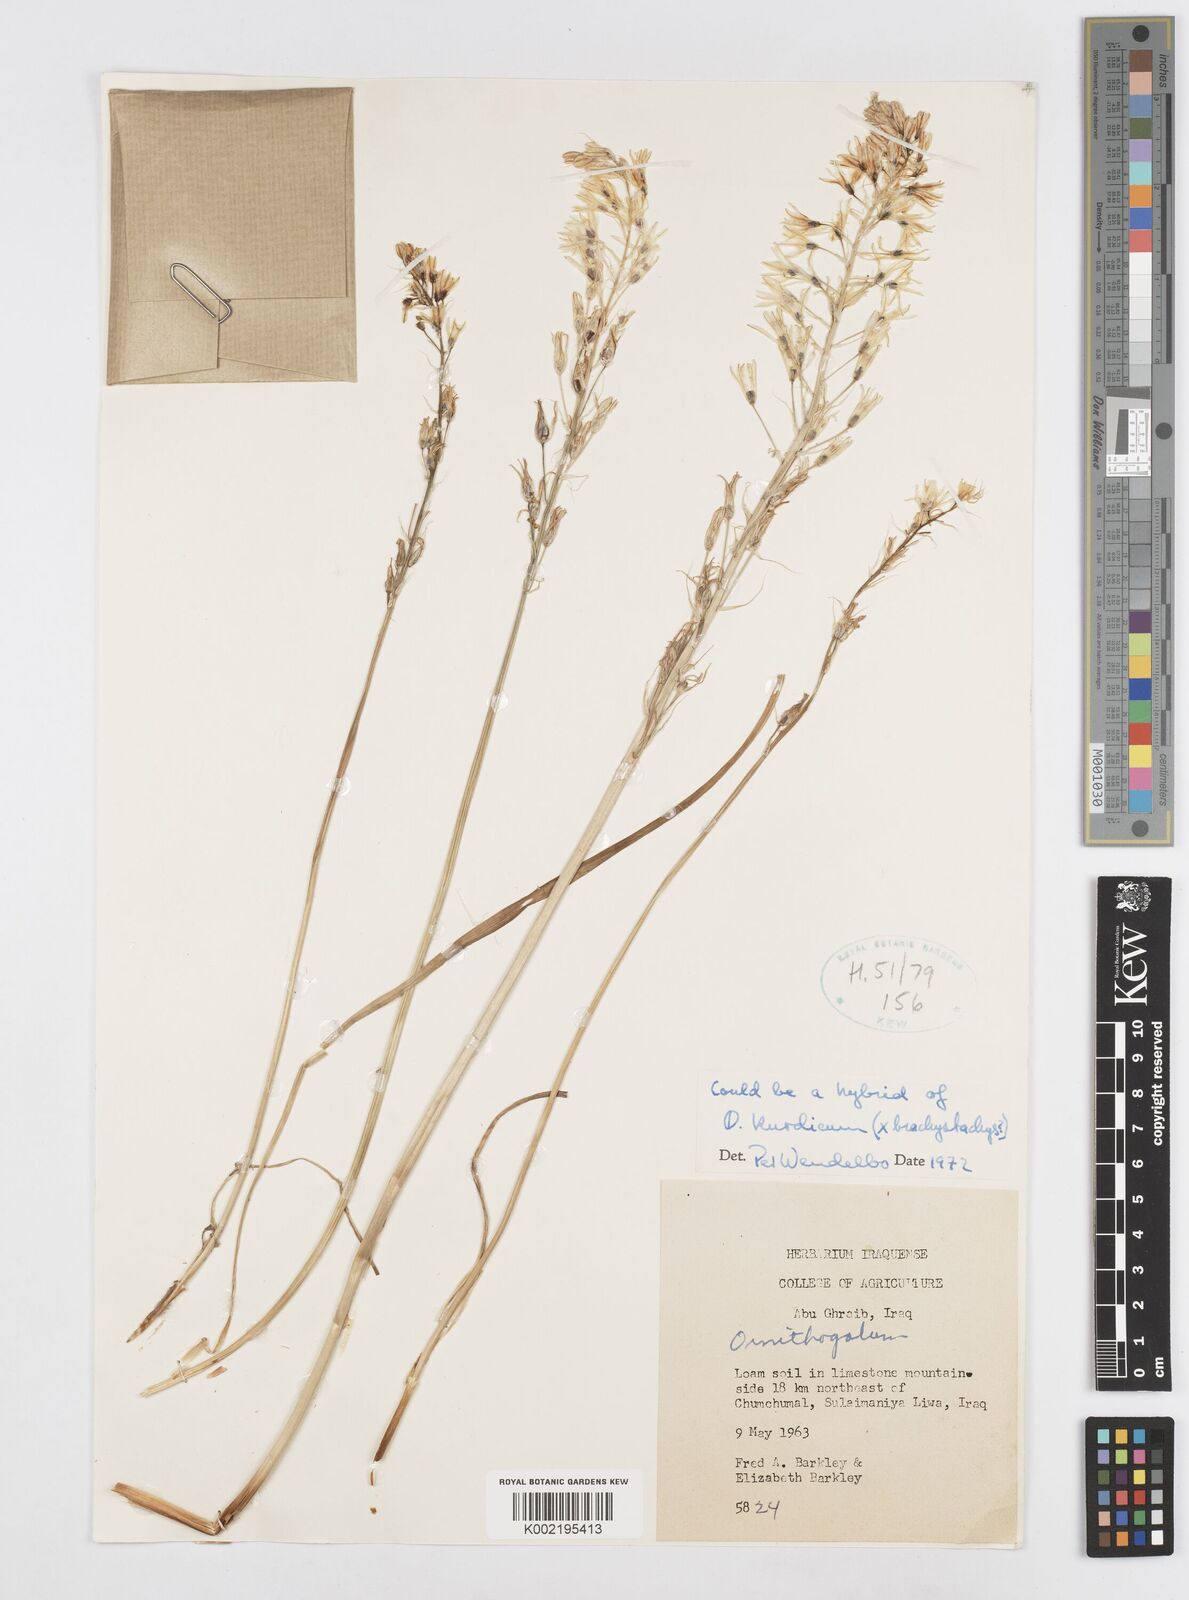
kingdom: Plantae
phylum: Tracheophyta
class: Liliopsida
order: Asparagales
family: Asparagaceae
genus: Ornithogalum
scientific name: Ornithogalum
